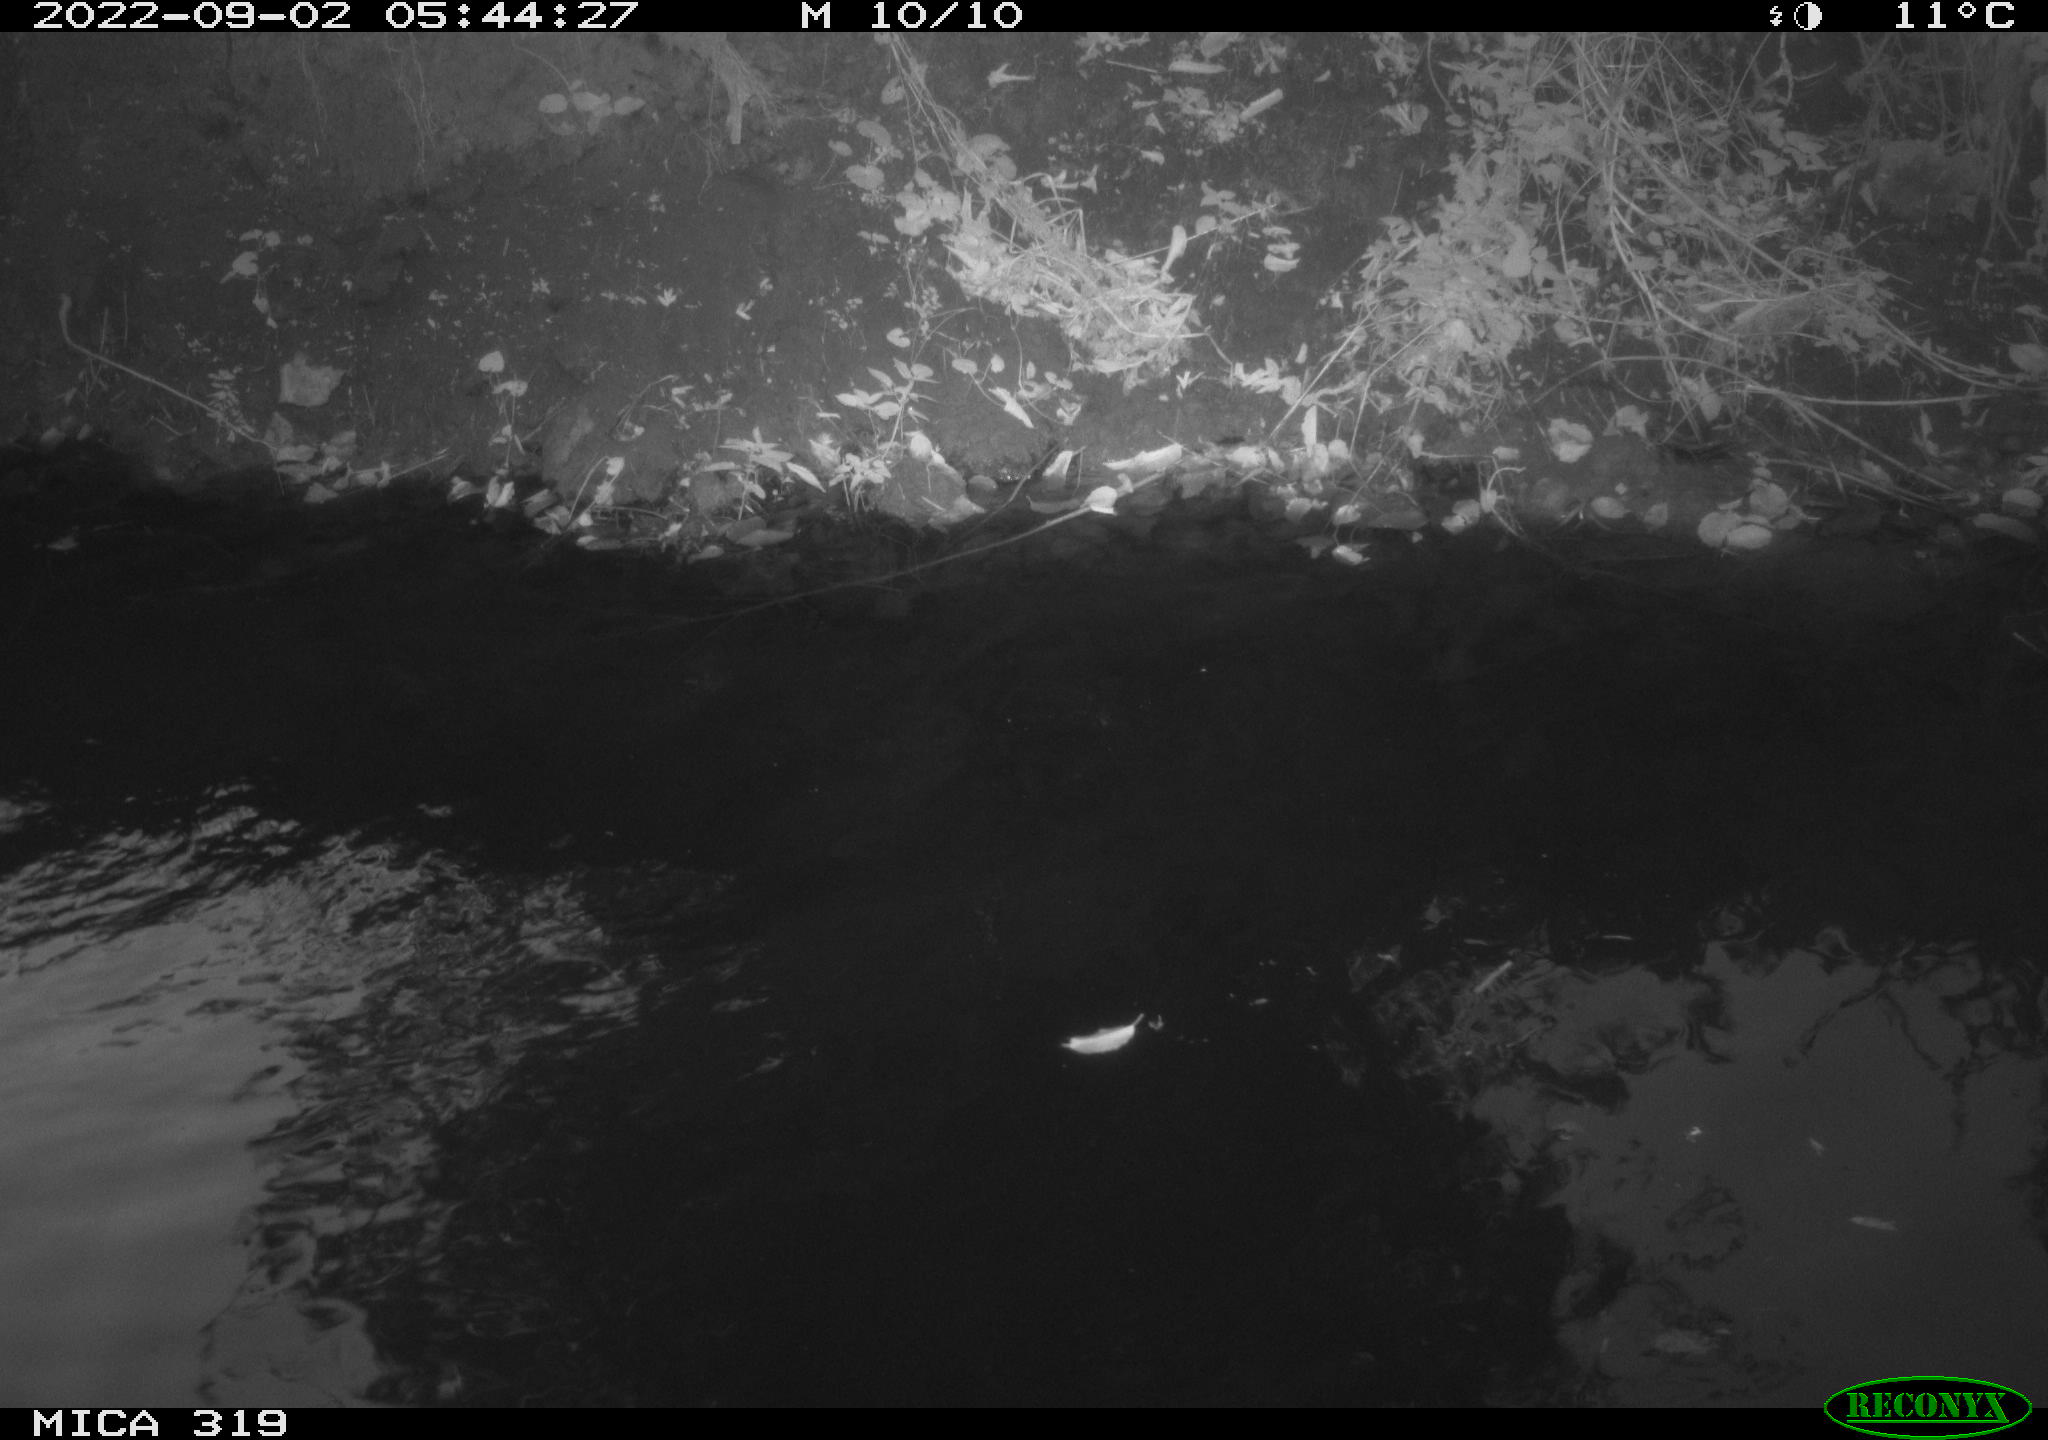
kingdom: Animalia
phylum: Chordata
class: Aves
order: Anseriformes
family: Anatidae
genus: Anas
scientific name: Anas
